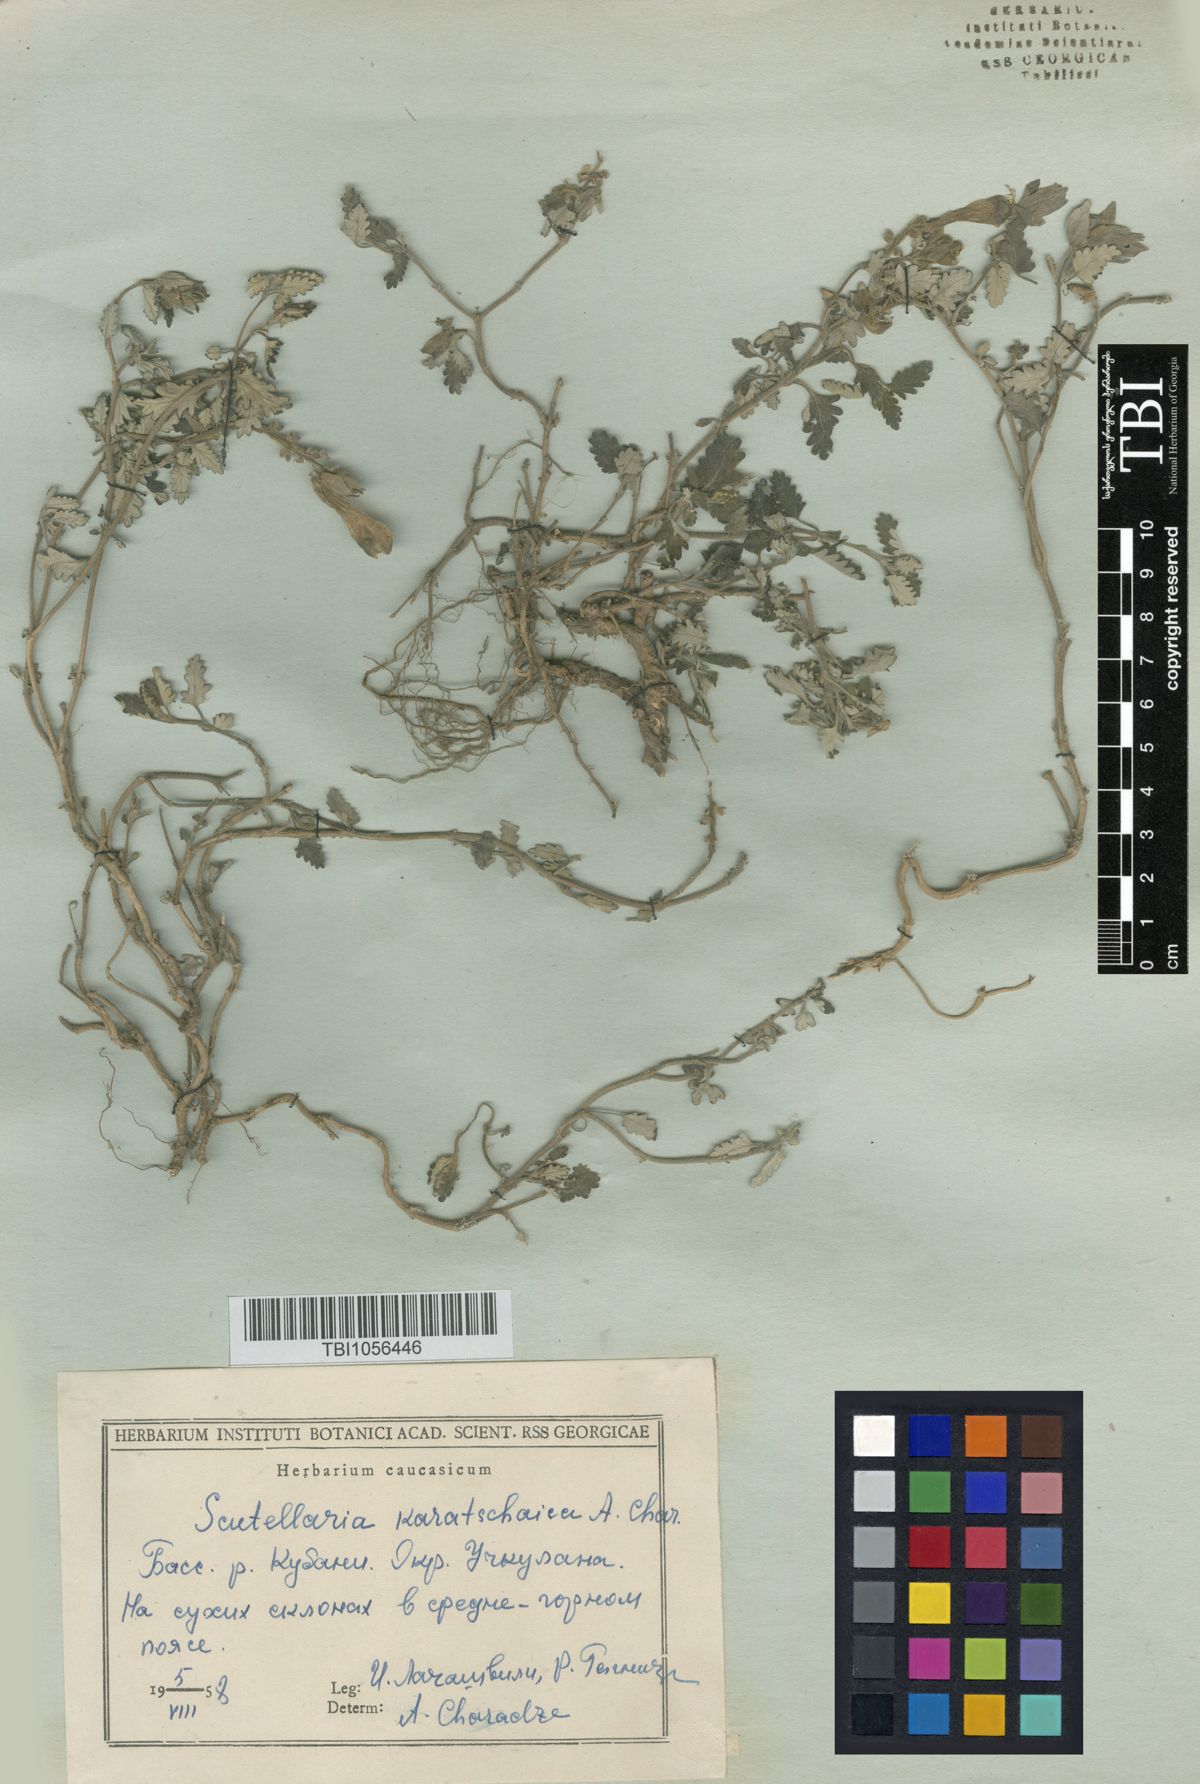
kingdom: Plantae
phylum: Tracheophyta
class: Magnoliopsida
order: Lamiales
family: Lamiaceae
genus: Scutellaria
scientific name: Scutellaria orientalis
